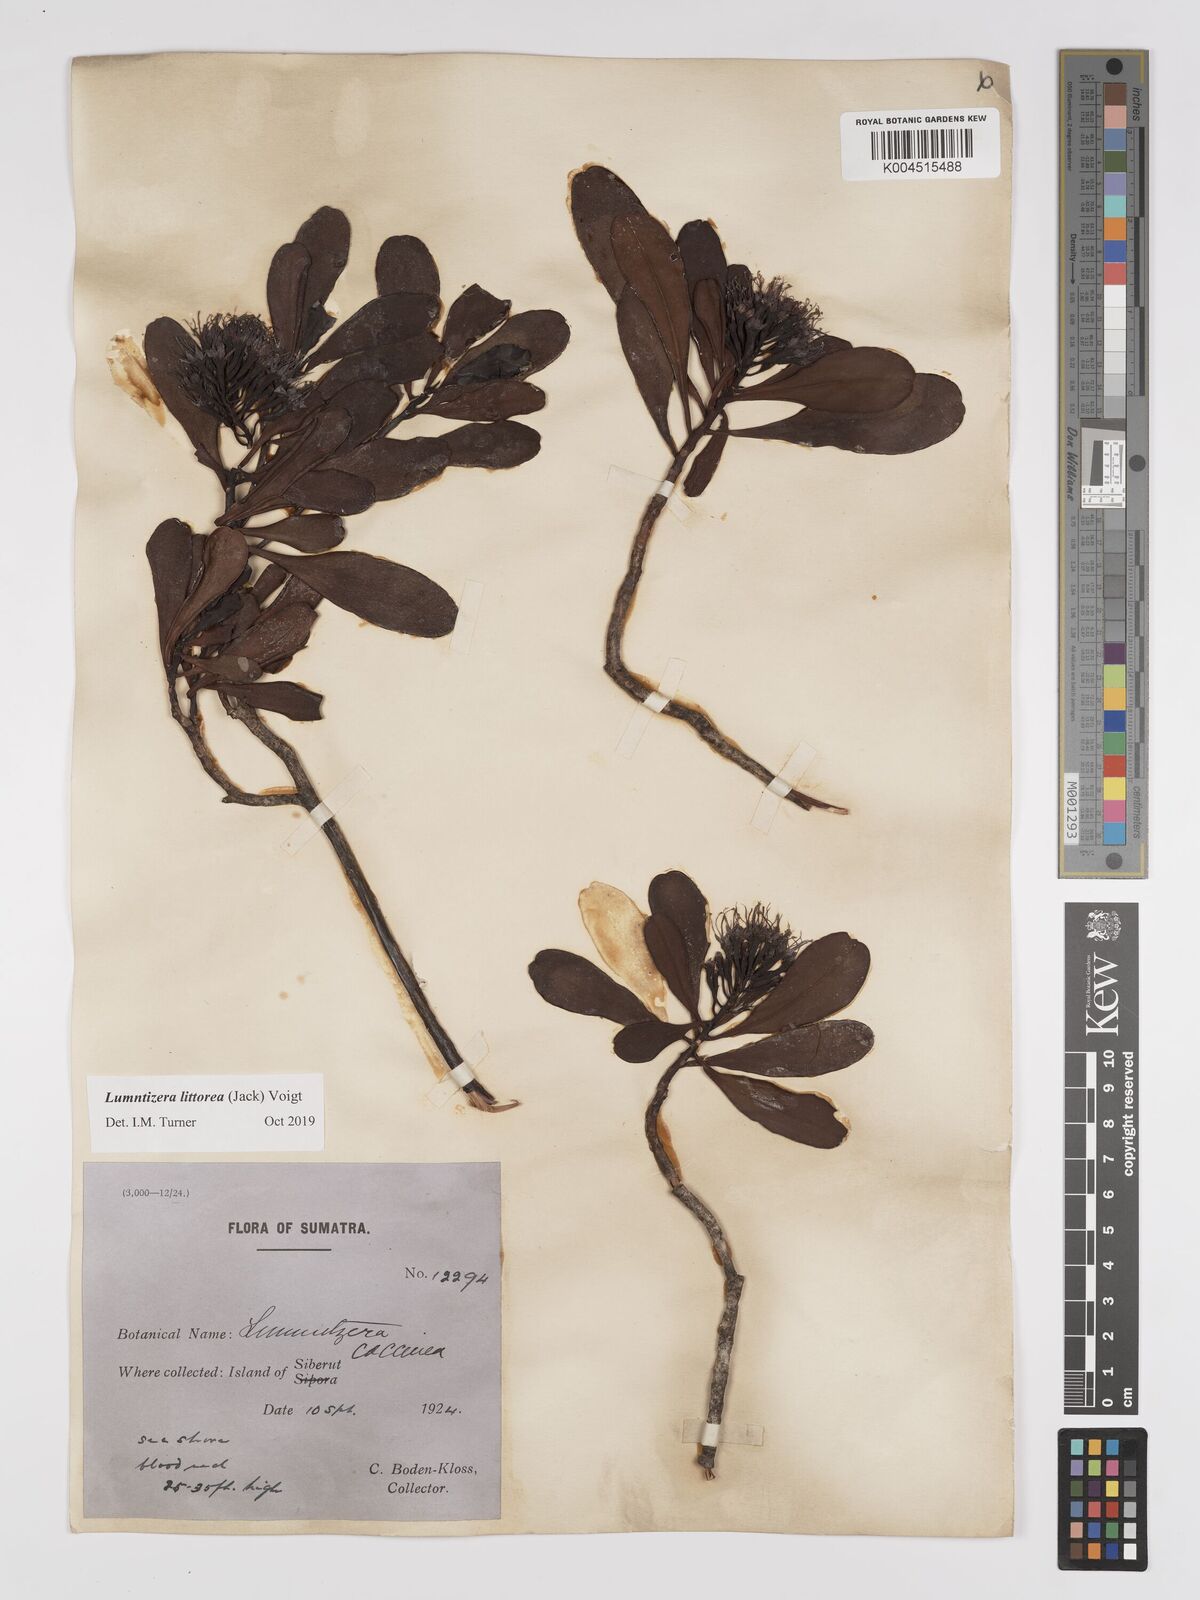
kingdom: Plantae
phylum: Tracheophyta
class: Magnoliopsida
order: Myrtales
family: Combretaceae
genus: Lumnitzera
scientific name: Lumnitzera littorea
